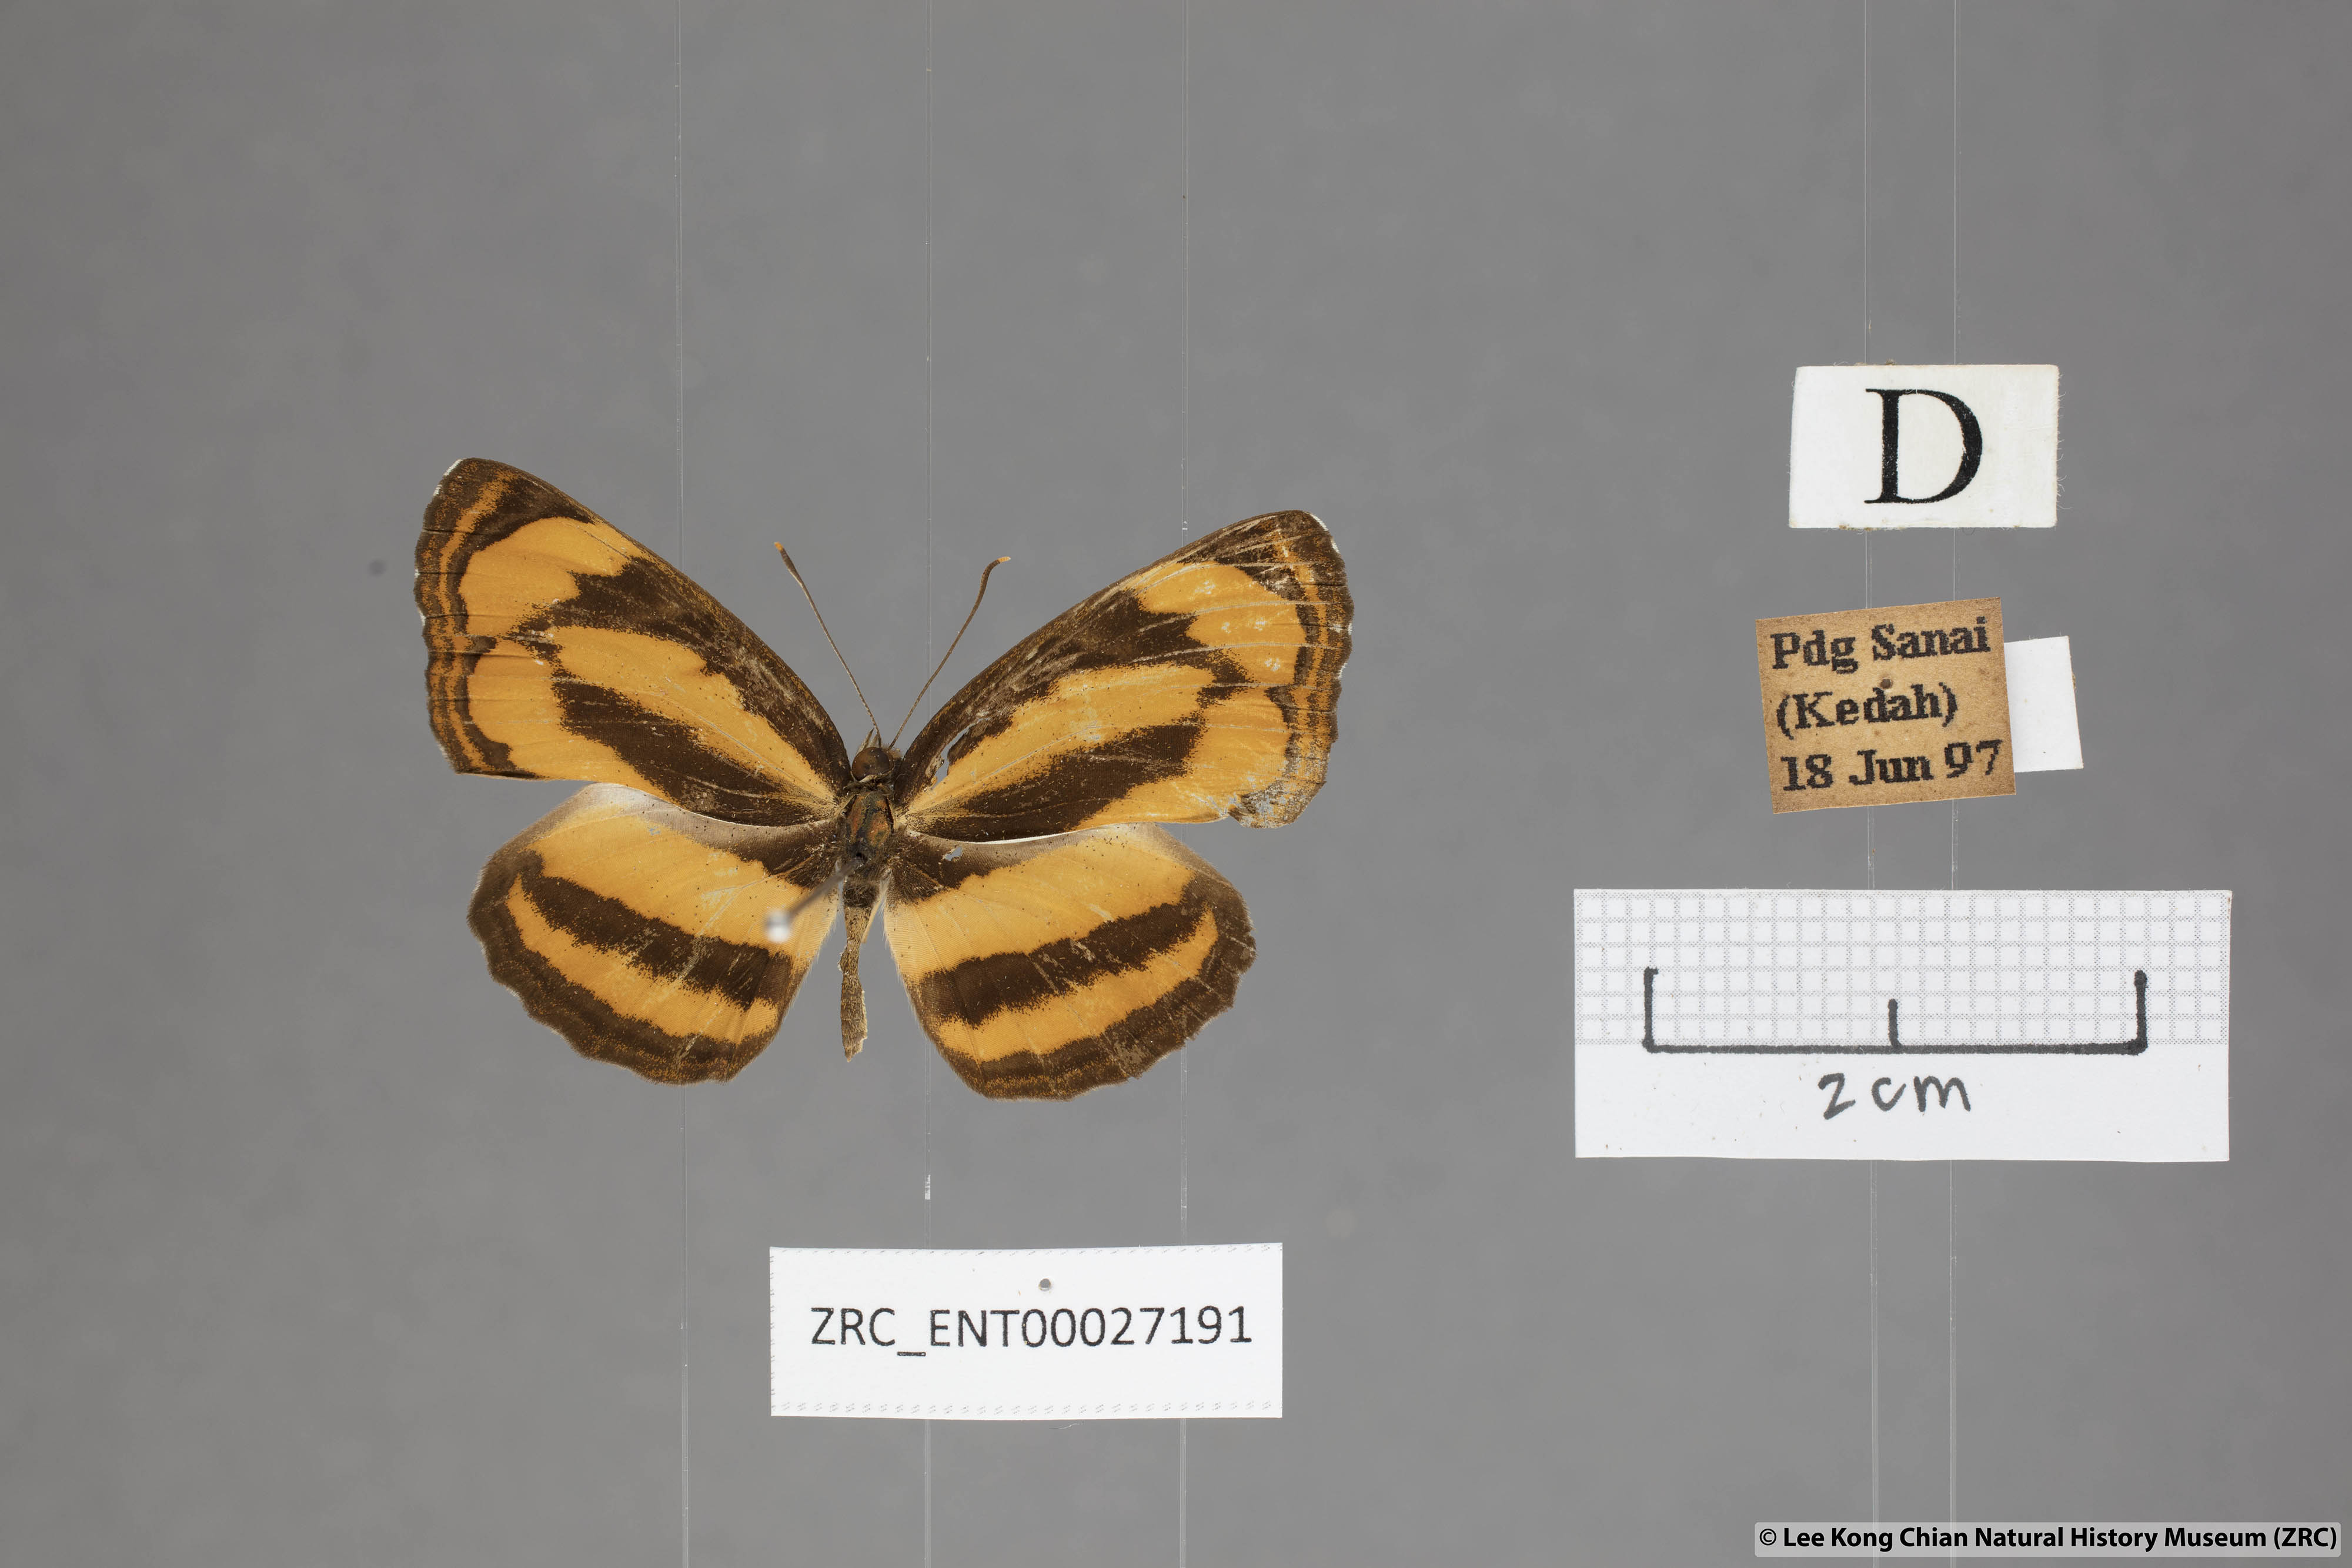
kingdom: Animalia
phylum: Arthropoda
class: Insecta
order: Lepidoptera
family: Nymphalidae
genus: Pantoporia
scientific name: Pantoporia sandaka
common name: Extra lascar
